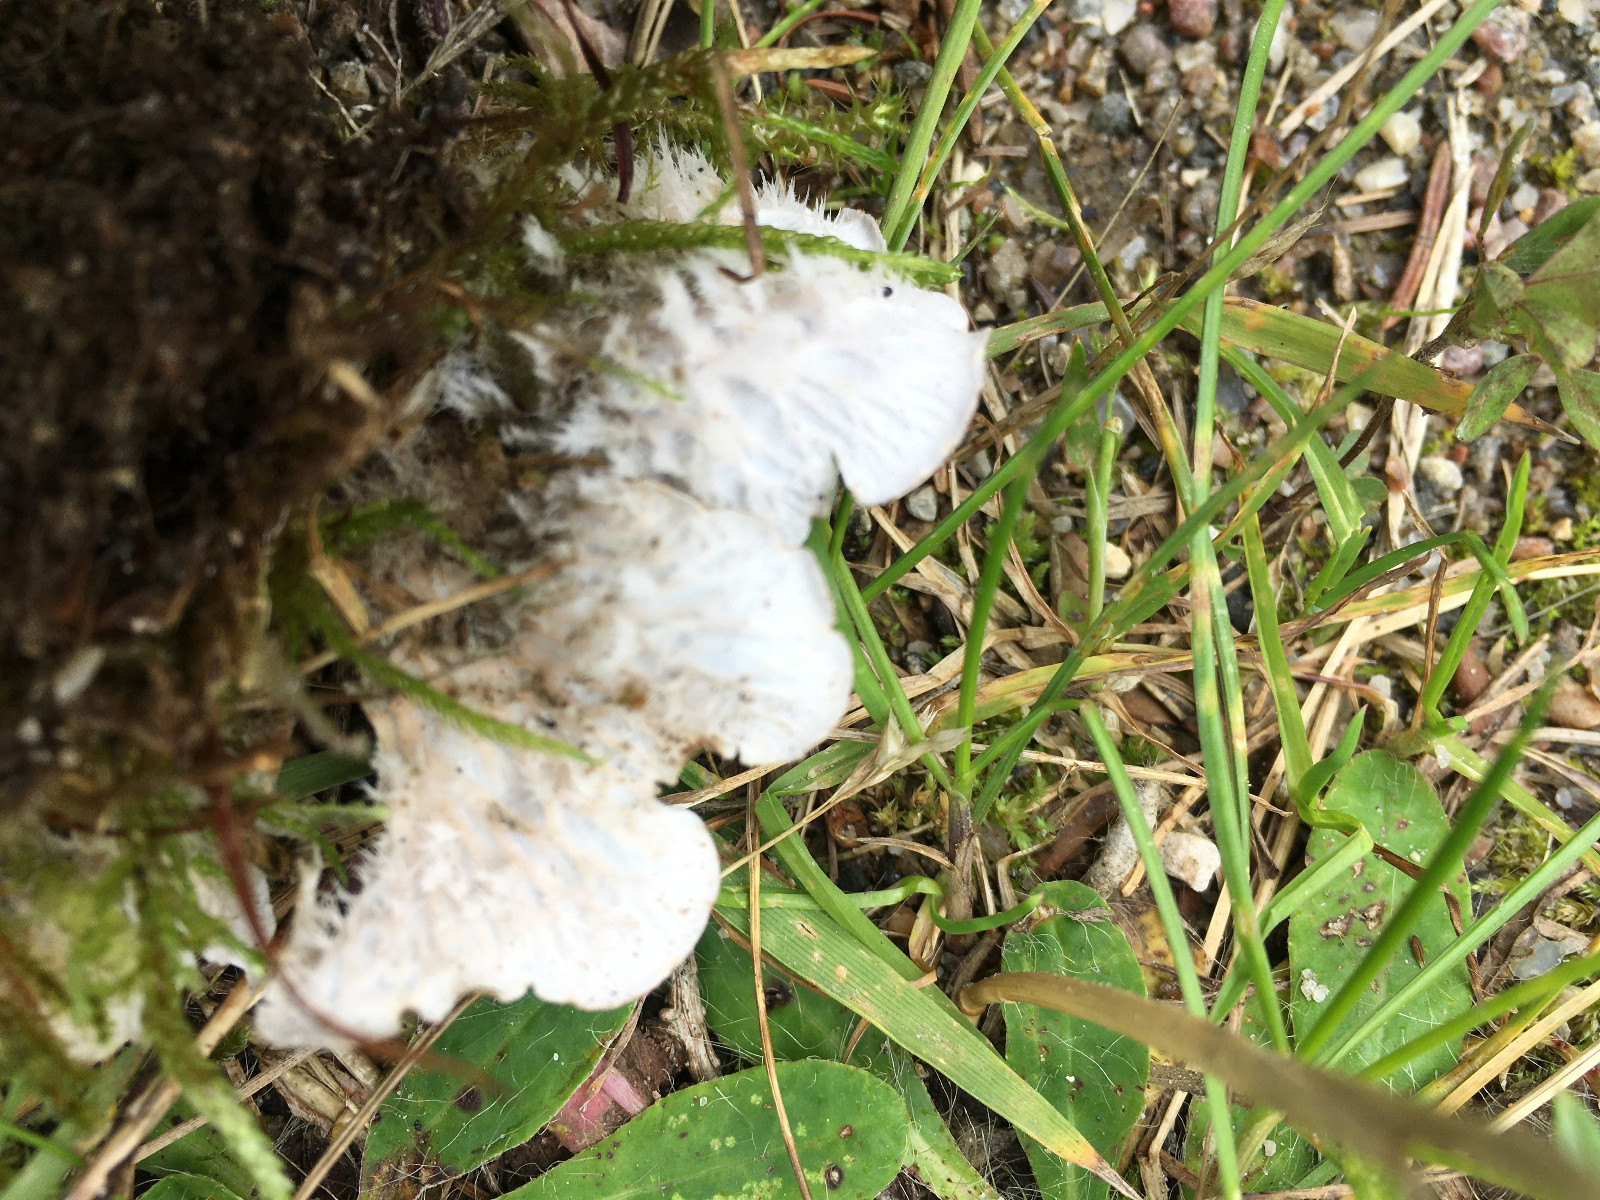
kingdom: Fungi
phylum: Ascomycota
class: Lecanoromycetes
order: Peltigerales
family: Peltigeraceae
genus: Peltigera
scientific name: Peltigera membranacea
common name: tynd skjoldlav
